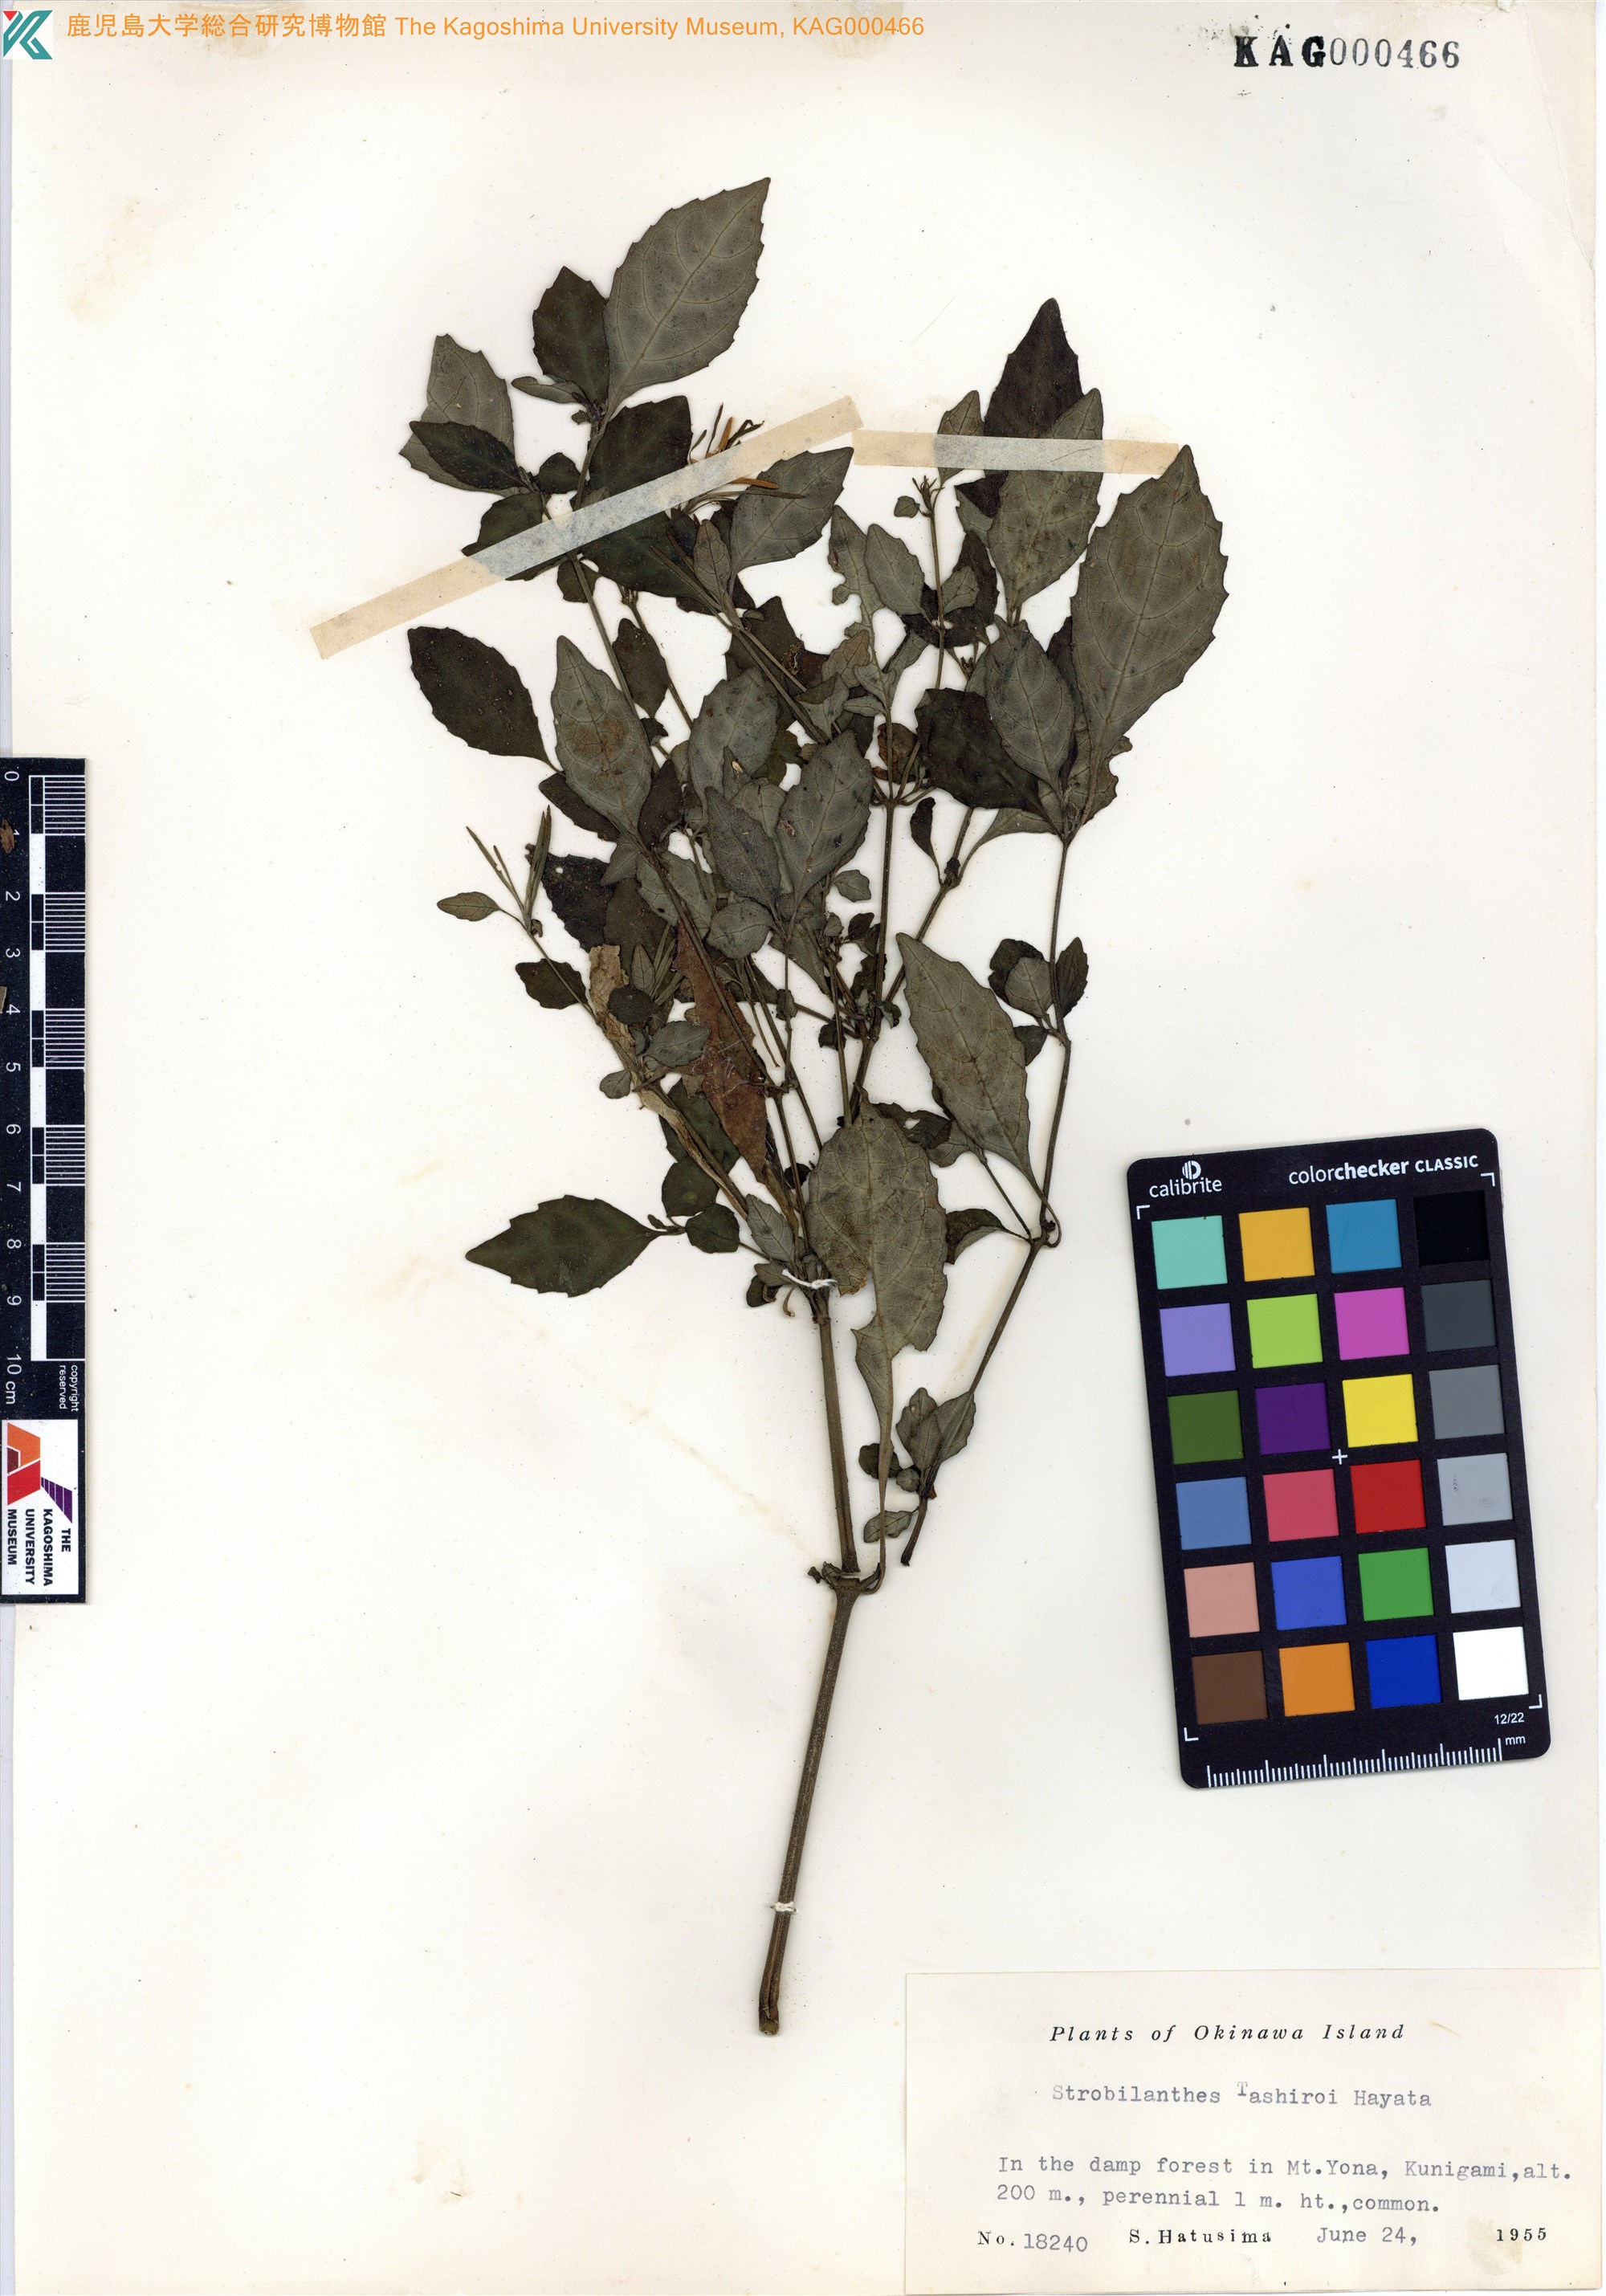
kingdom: Plantae
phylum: Tracheophyta
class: Magnoliopsida
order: Lamiales
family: Acanthaceae
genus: Strobilanthes
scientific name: Strobilanthes flexicaulis
